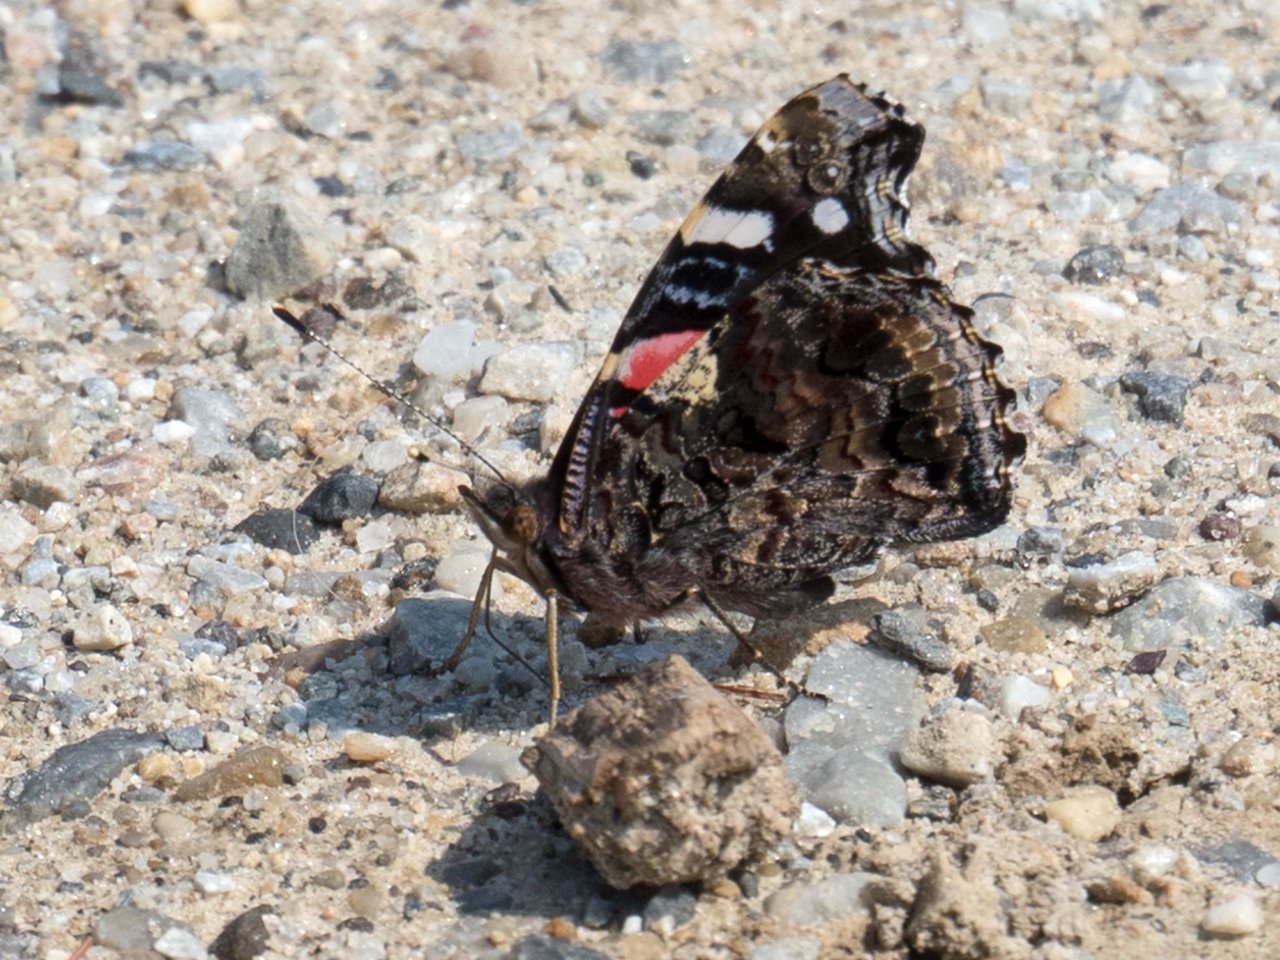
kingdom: Animalia
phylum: Arthropoda
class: Insecta
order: Lepidoptera
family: Nymphalidae
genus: Vanessa
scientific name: Vanessa atalanta
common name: Red Admiral
